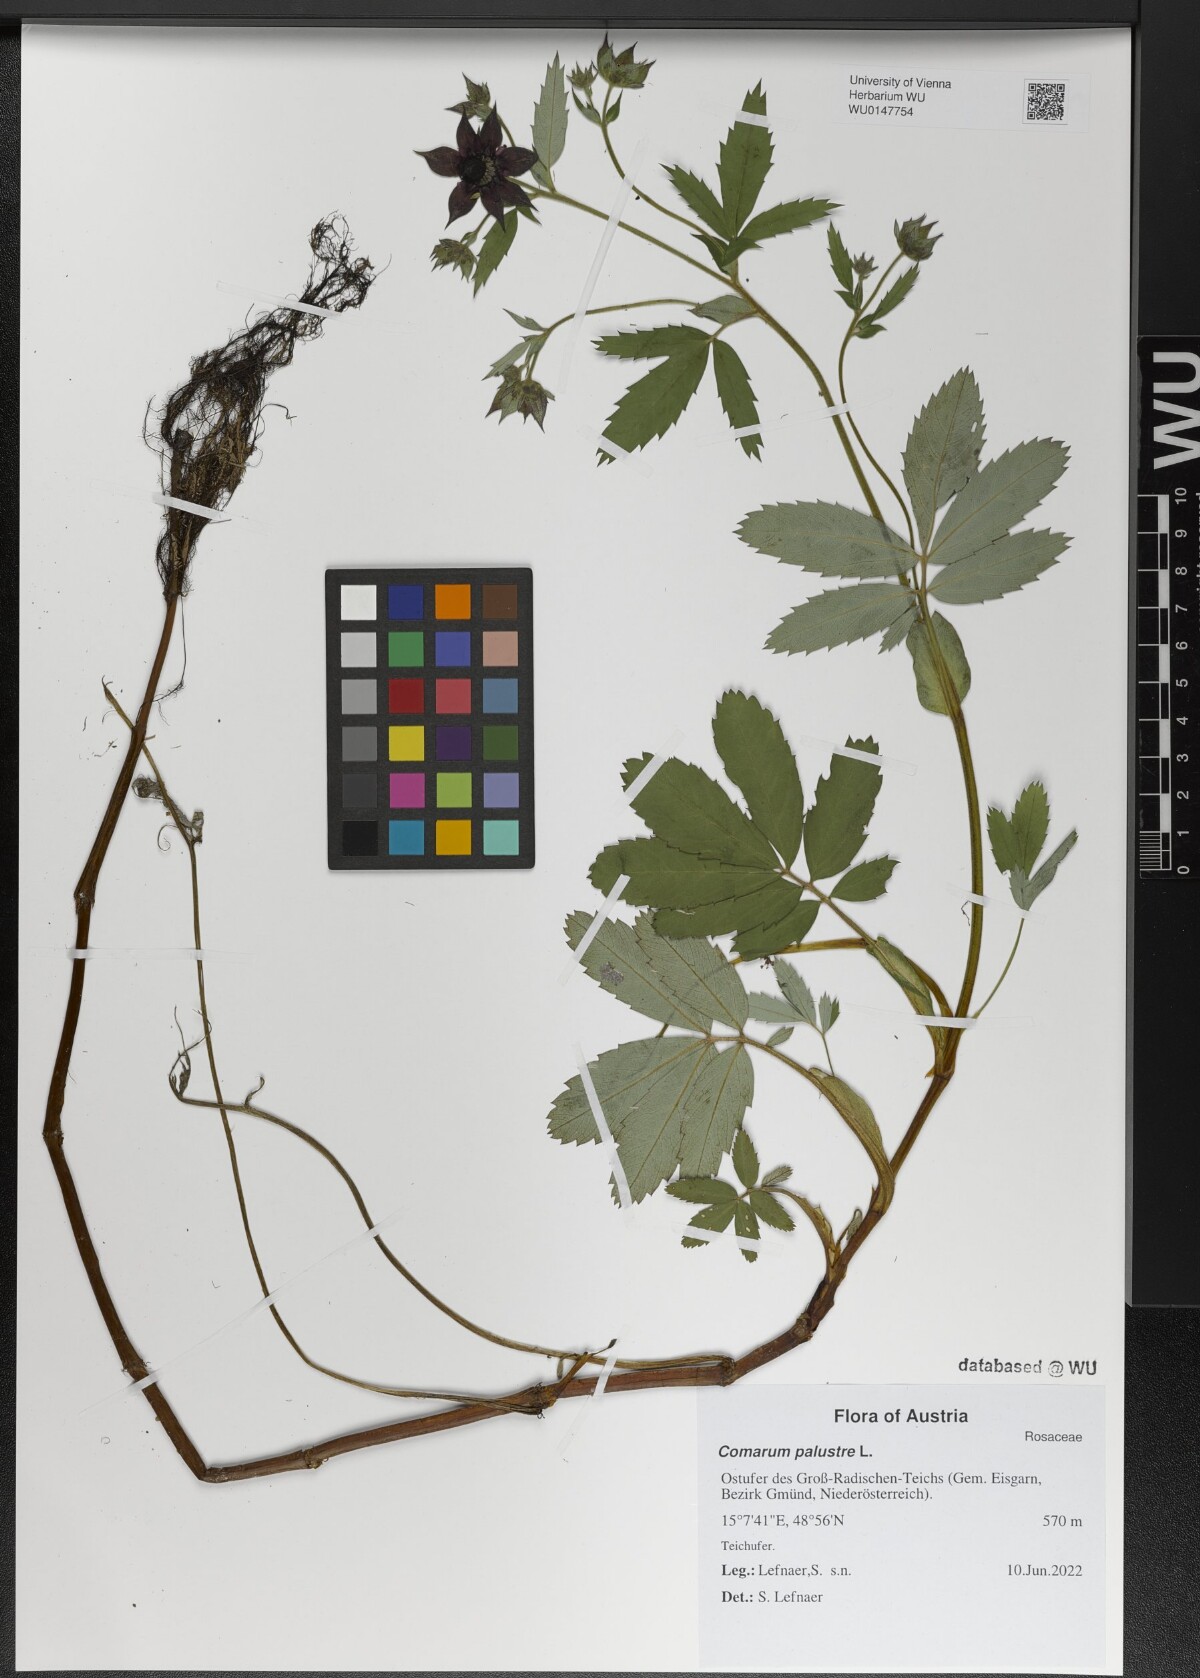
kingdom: Plantae
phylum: Tracheophyta
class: Magnoliopsida
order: Rosales
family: Rosaceae
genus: Comarum
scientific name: Comarum palustre
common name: Marsh cinquefoil
